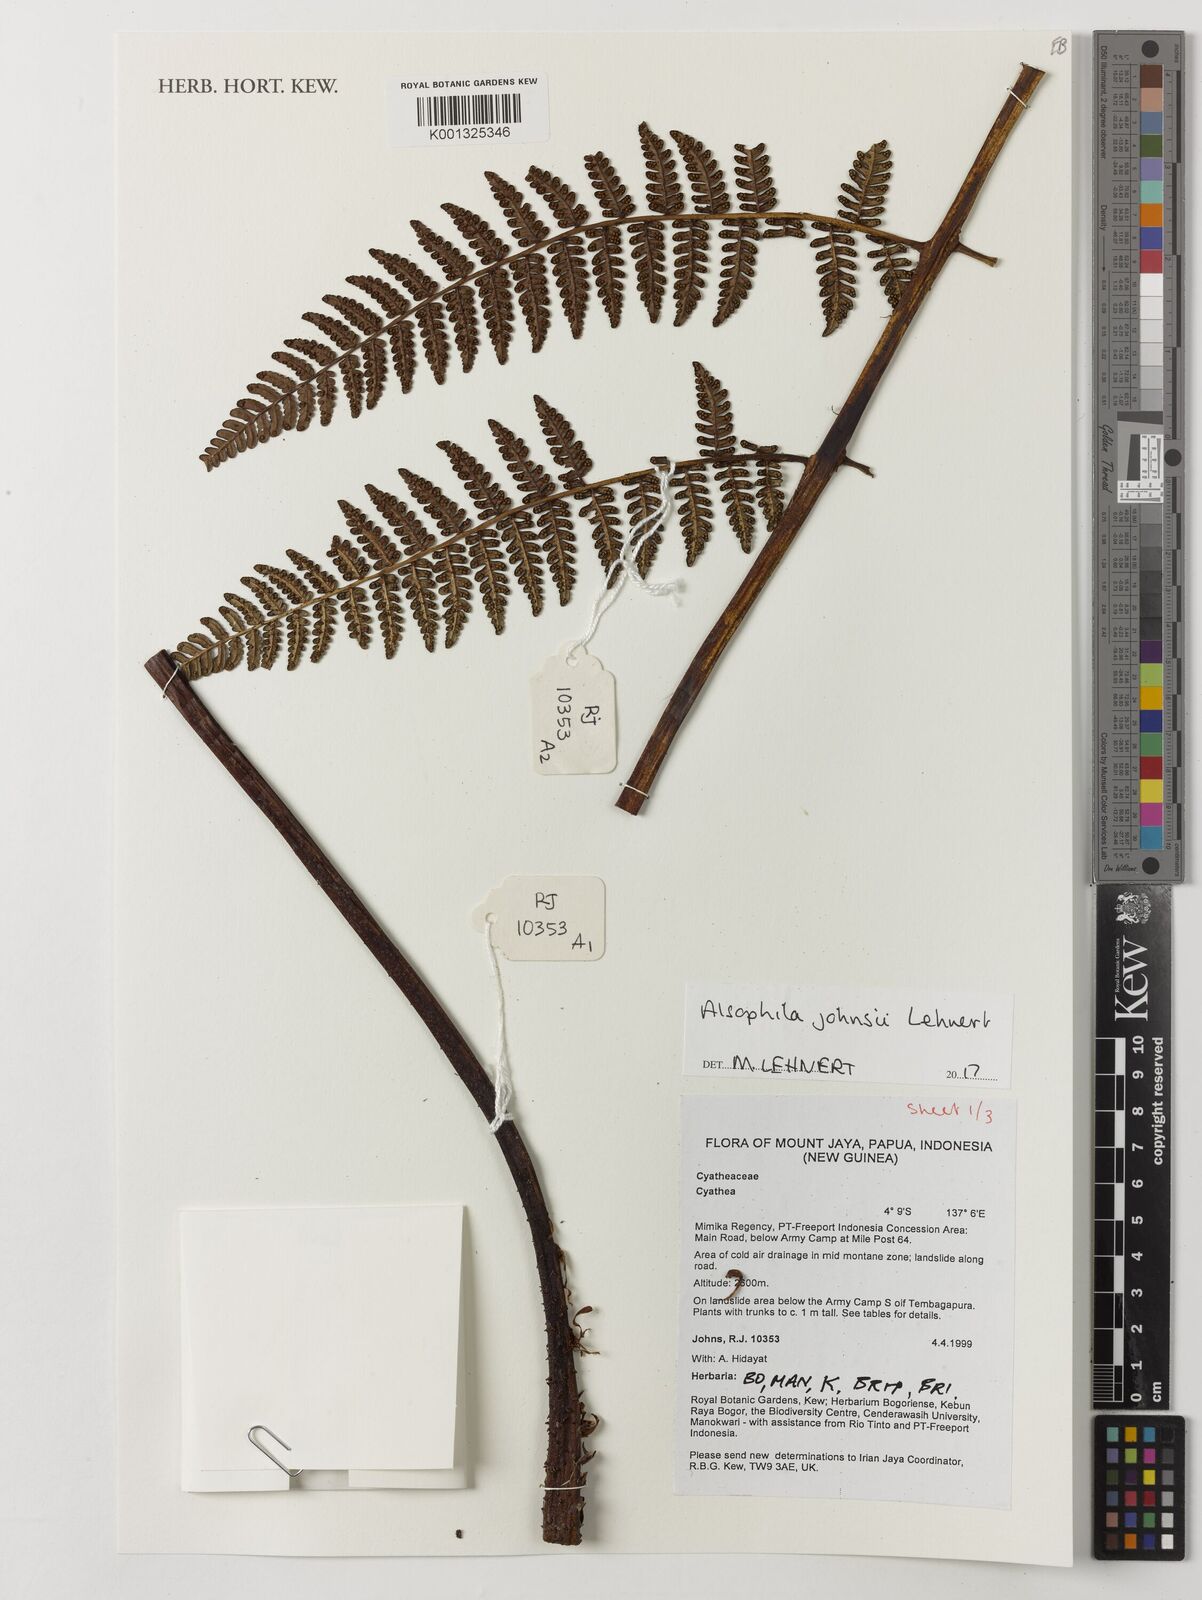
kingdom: Plantae
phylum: Tracheophyta
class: Polypodiopsida
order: Cyatheales
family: Cyatheaceae
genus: Alsophila
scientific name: Alsophila johnsii
